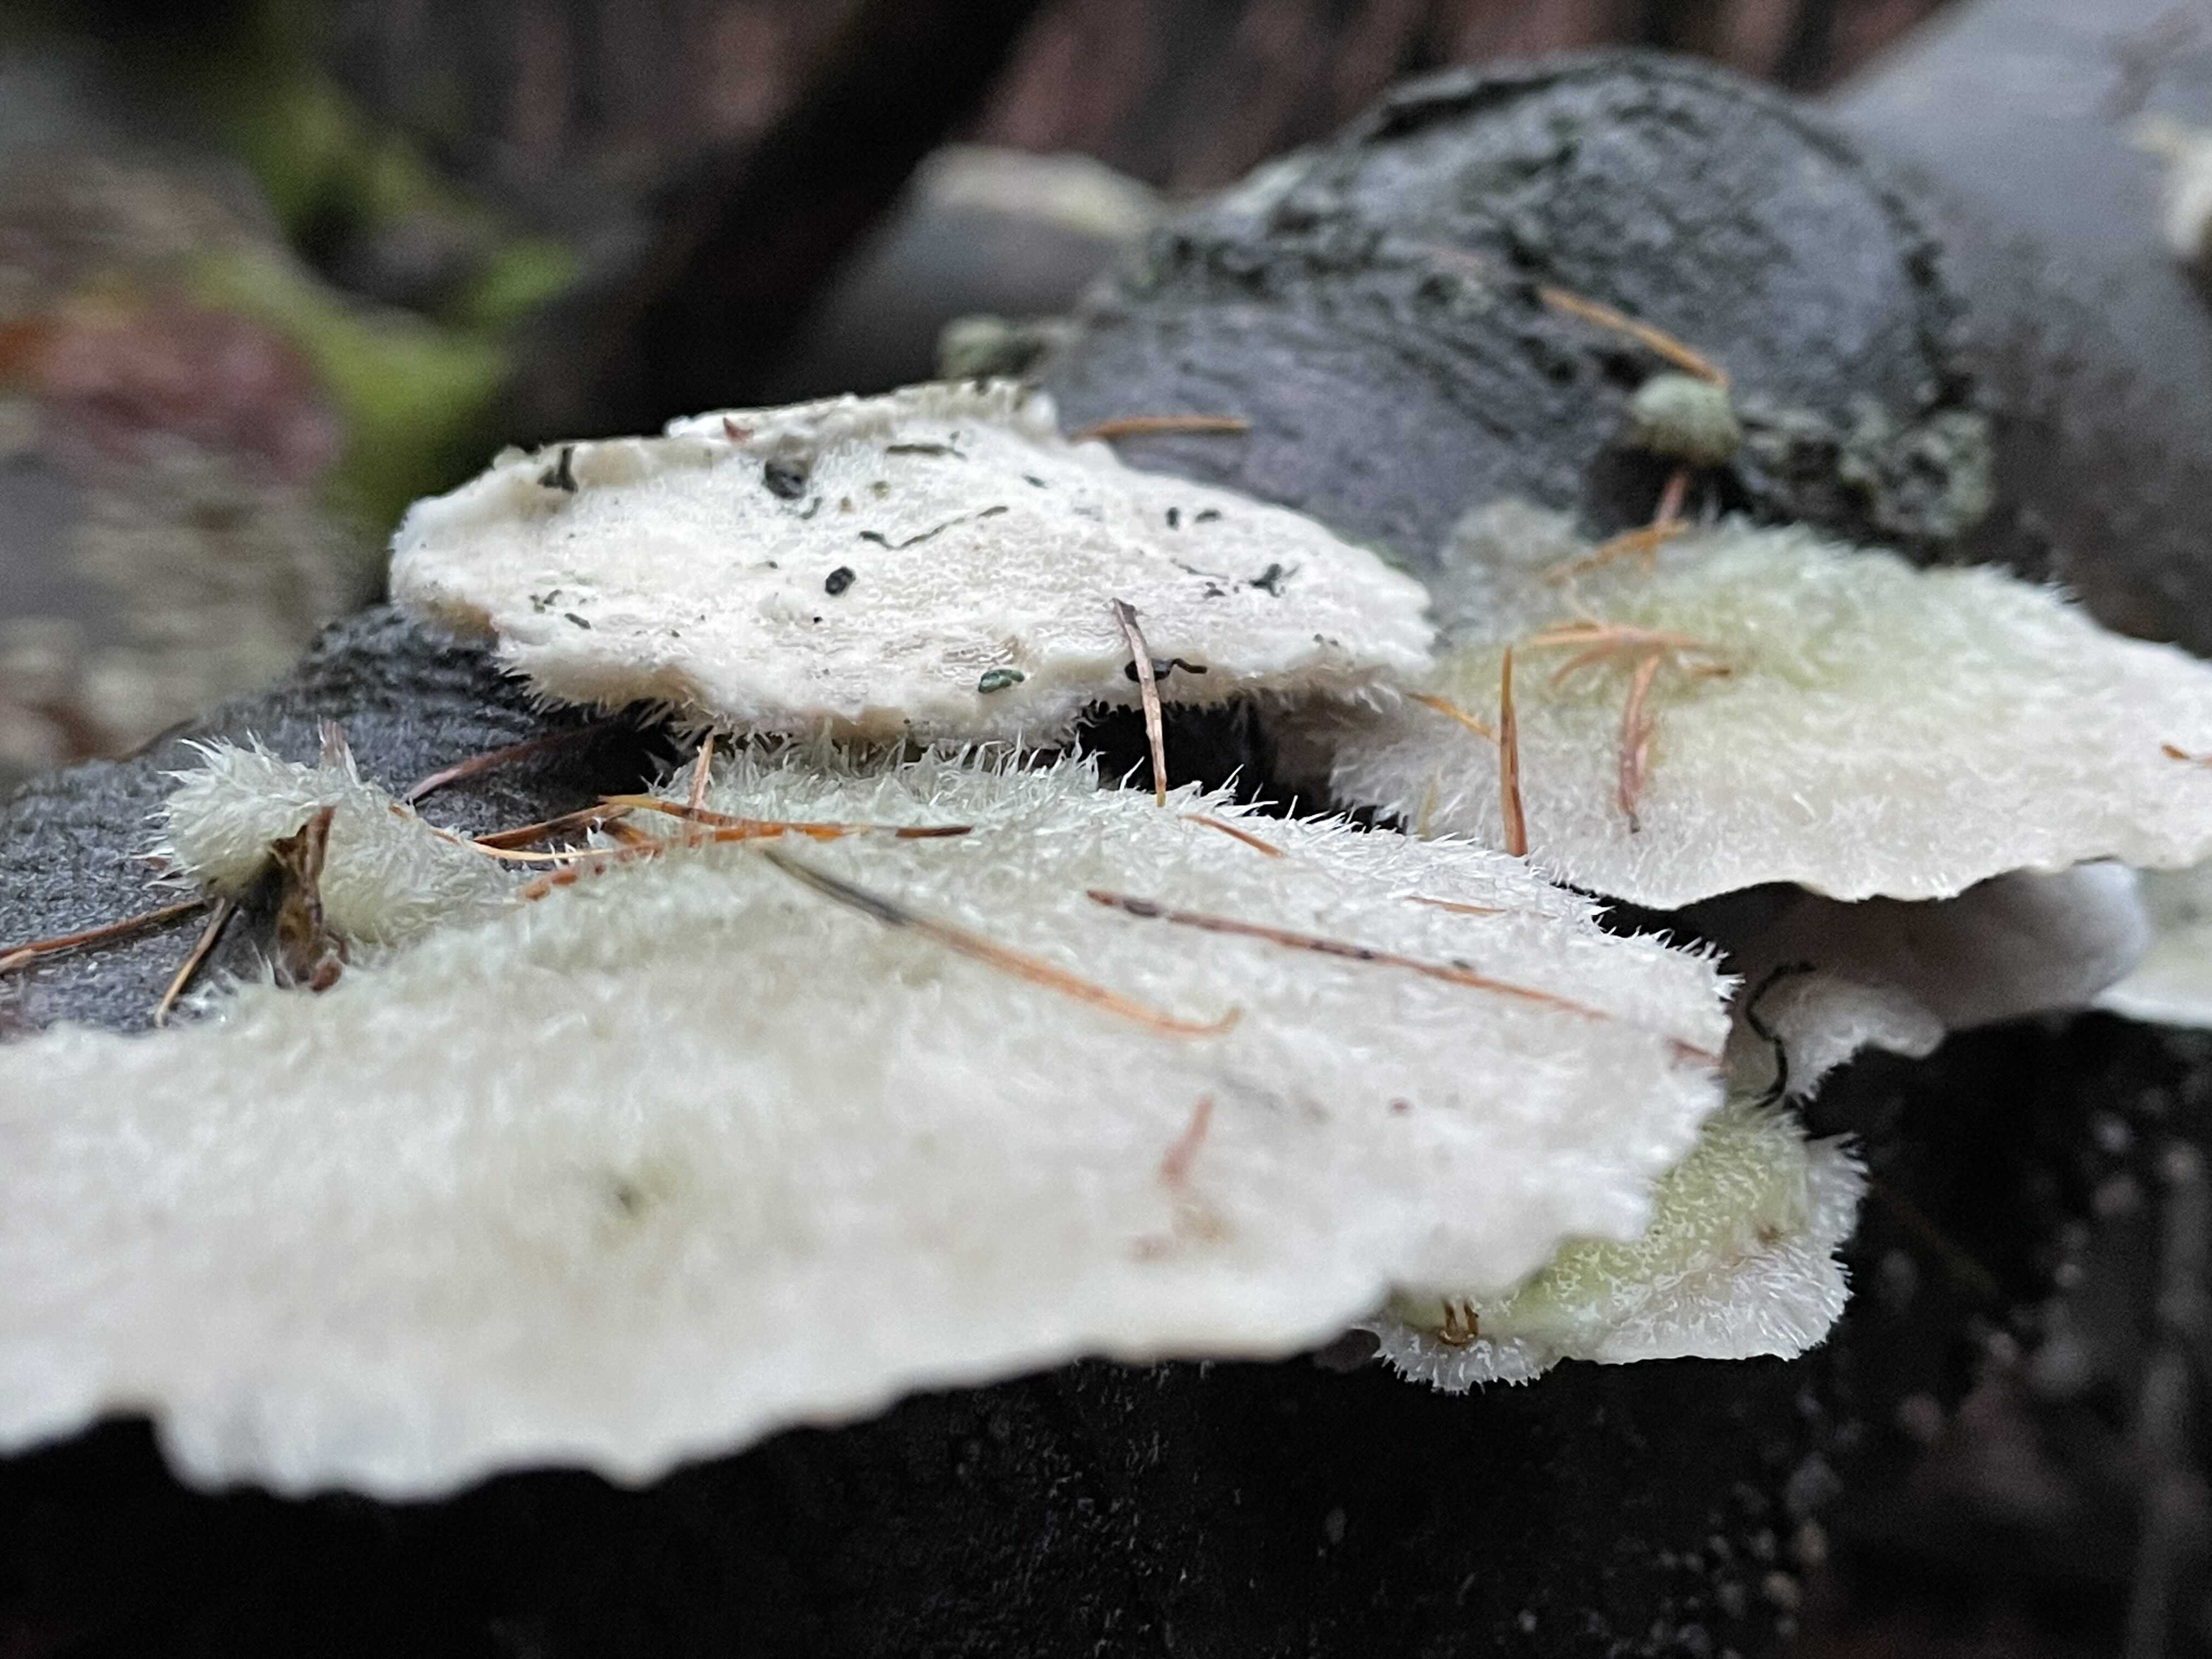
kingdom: Fungi
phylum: Basidiomycota
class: Agaricomycetes
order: Polyporales
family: Polyporaceae
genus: Trametes
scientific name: Trametes hirsuta
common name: håret læderporesvamp
